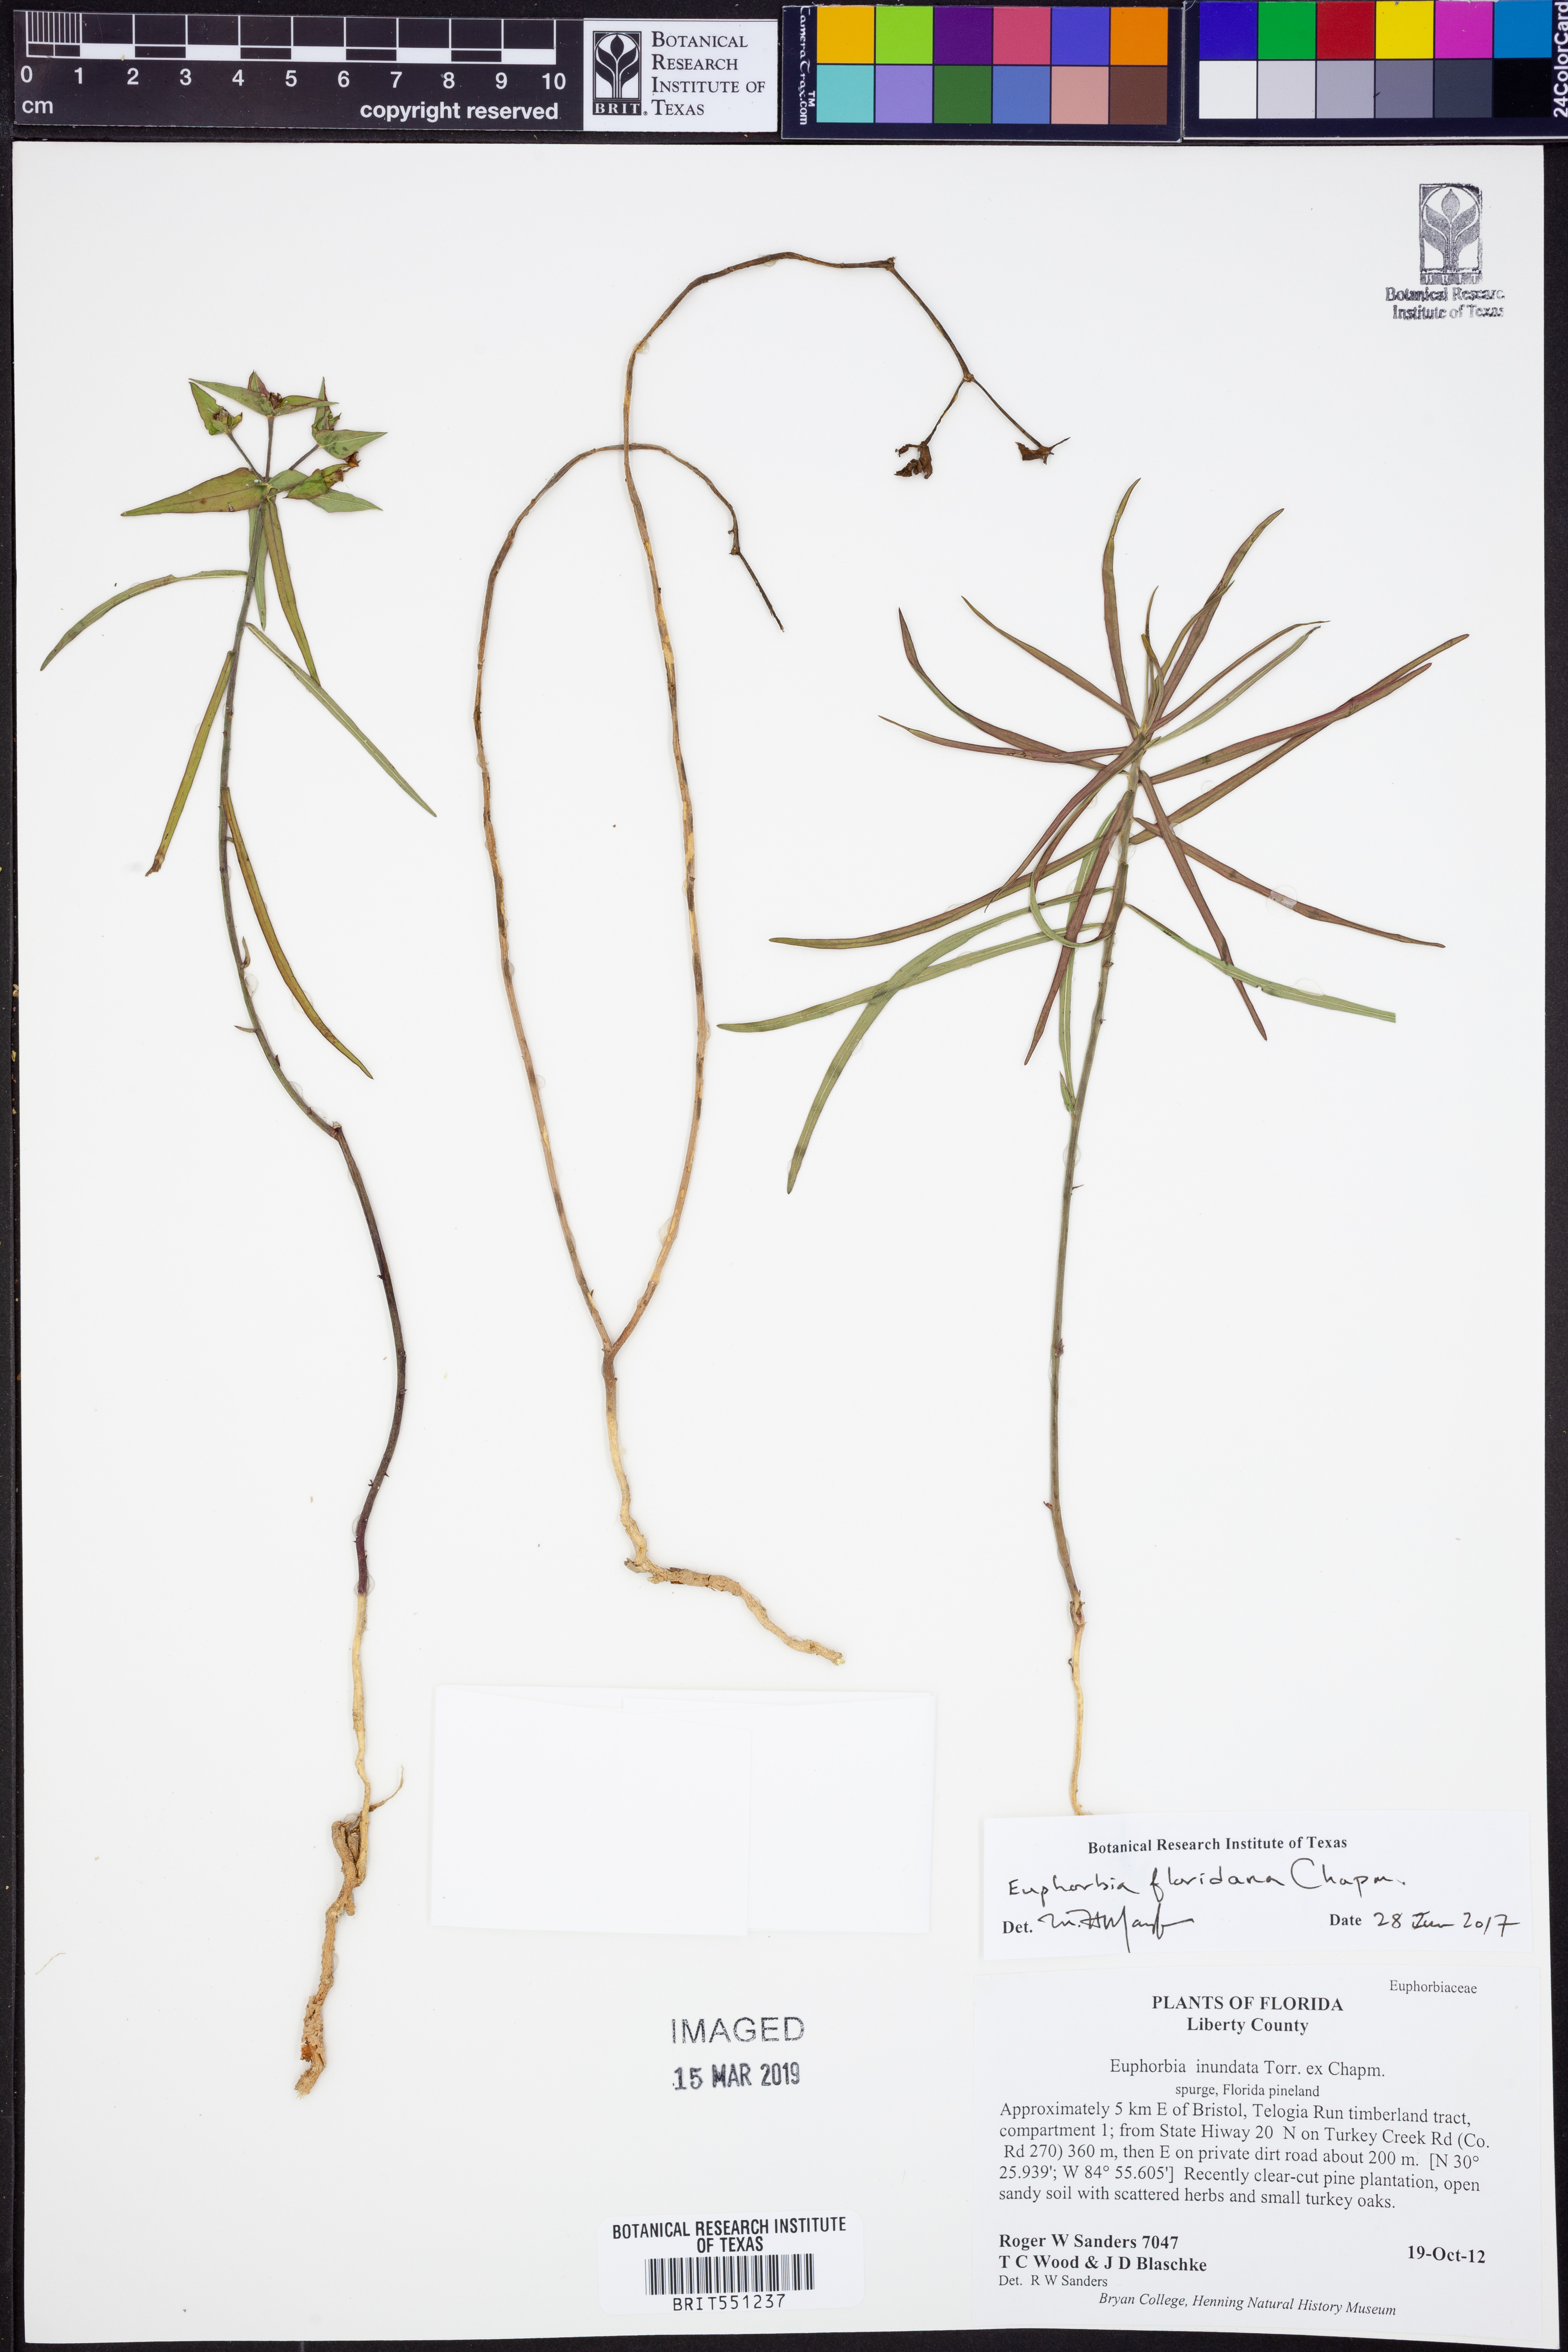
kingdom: Plantae
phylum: Tracheophyta
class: Magnoliopsida
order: Malpighiales
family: Euphorbiaceae
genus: Euphorbia
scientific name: Euphorbia floridana
